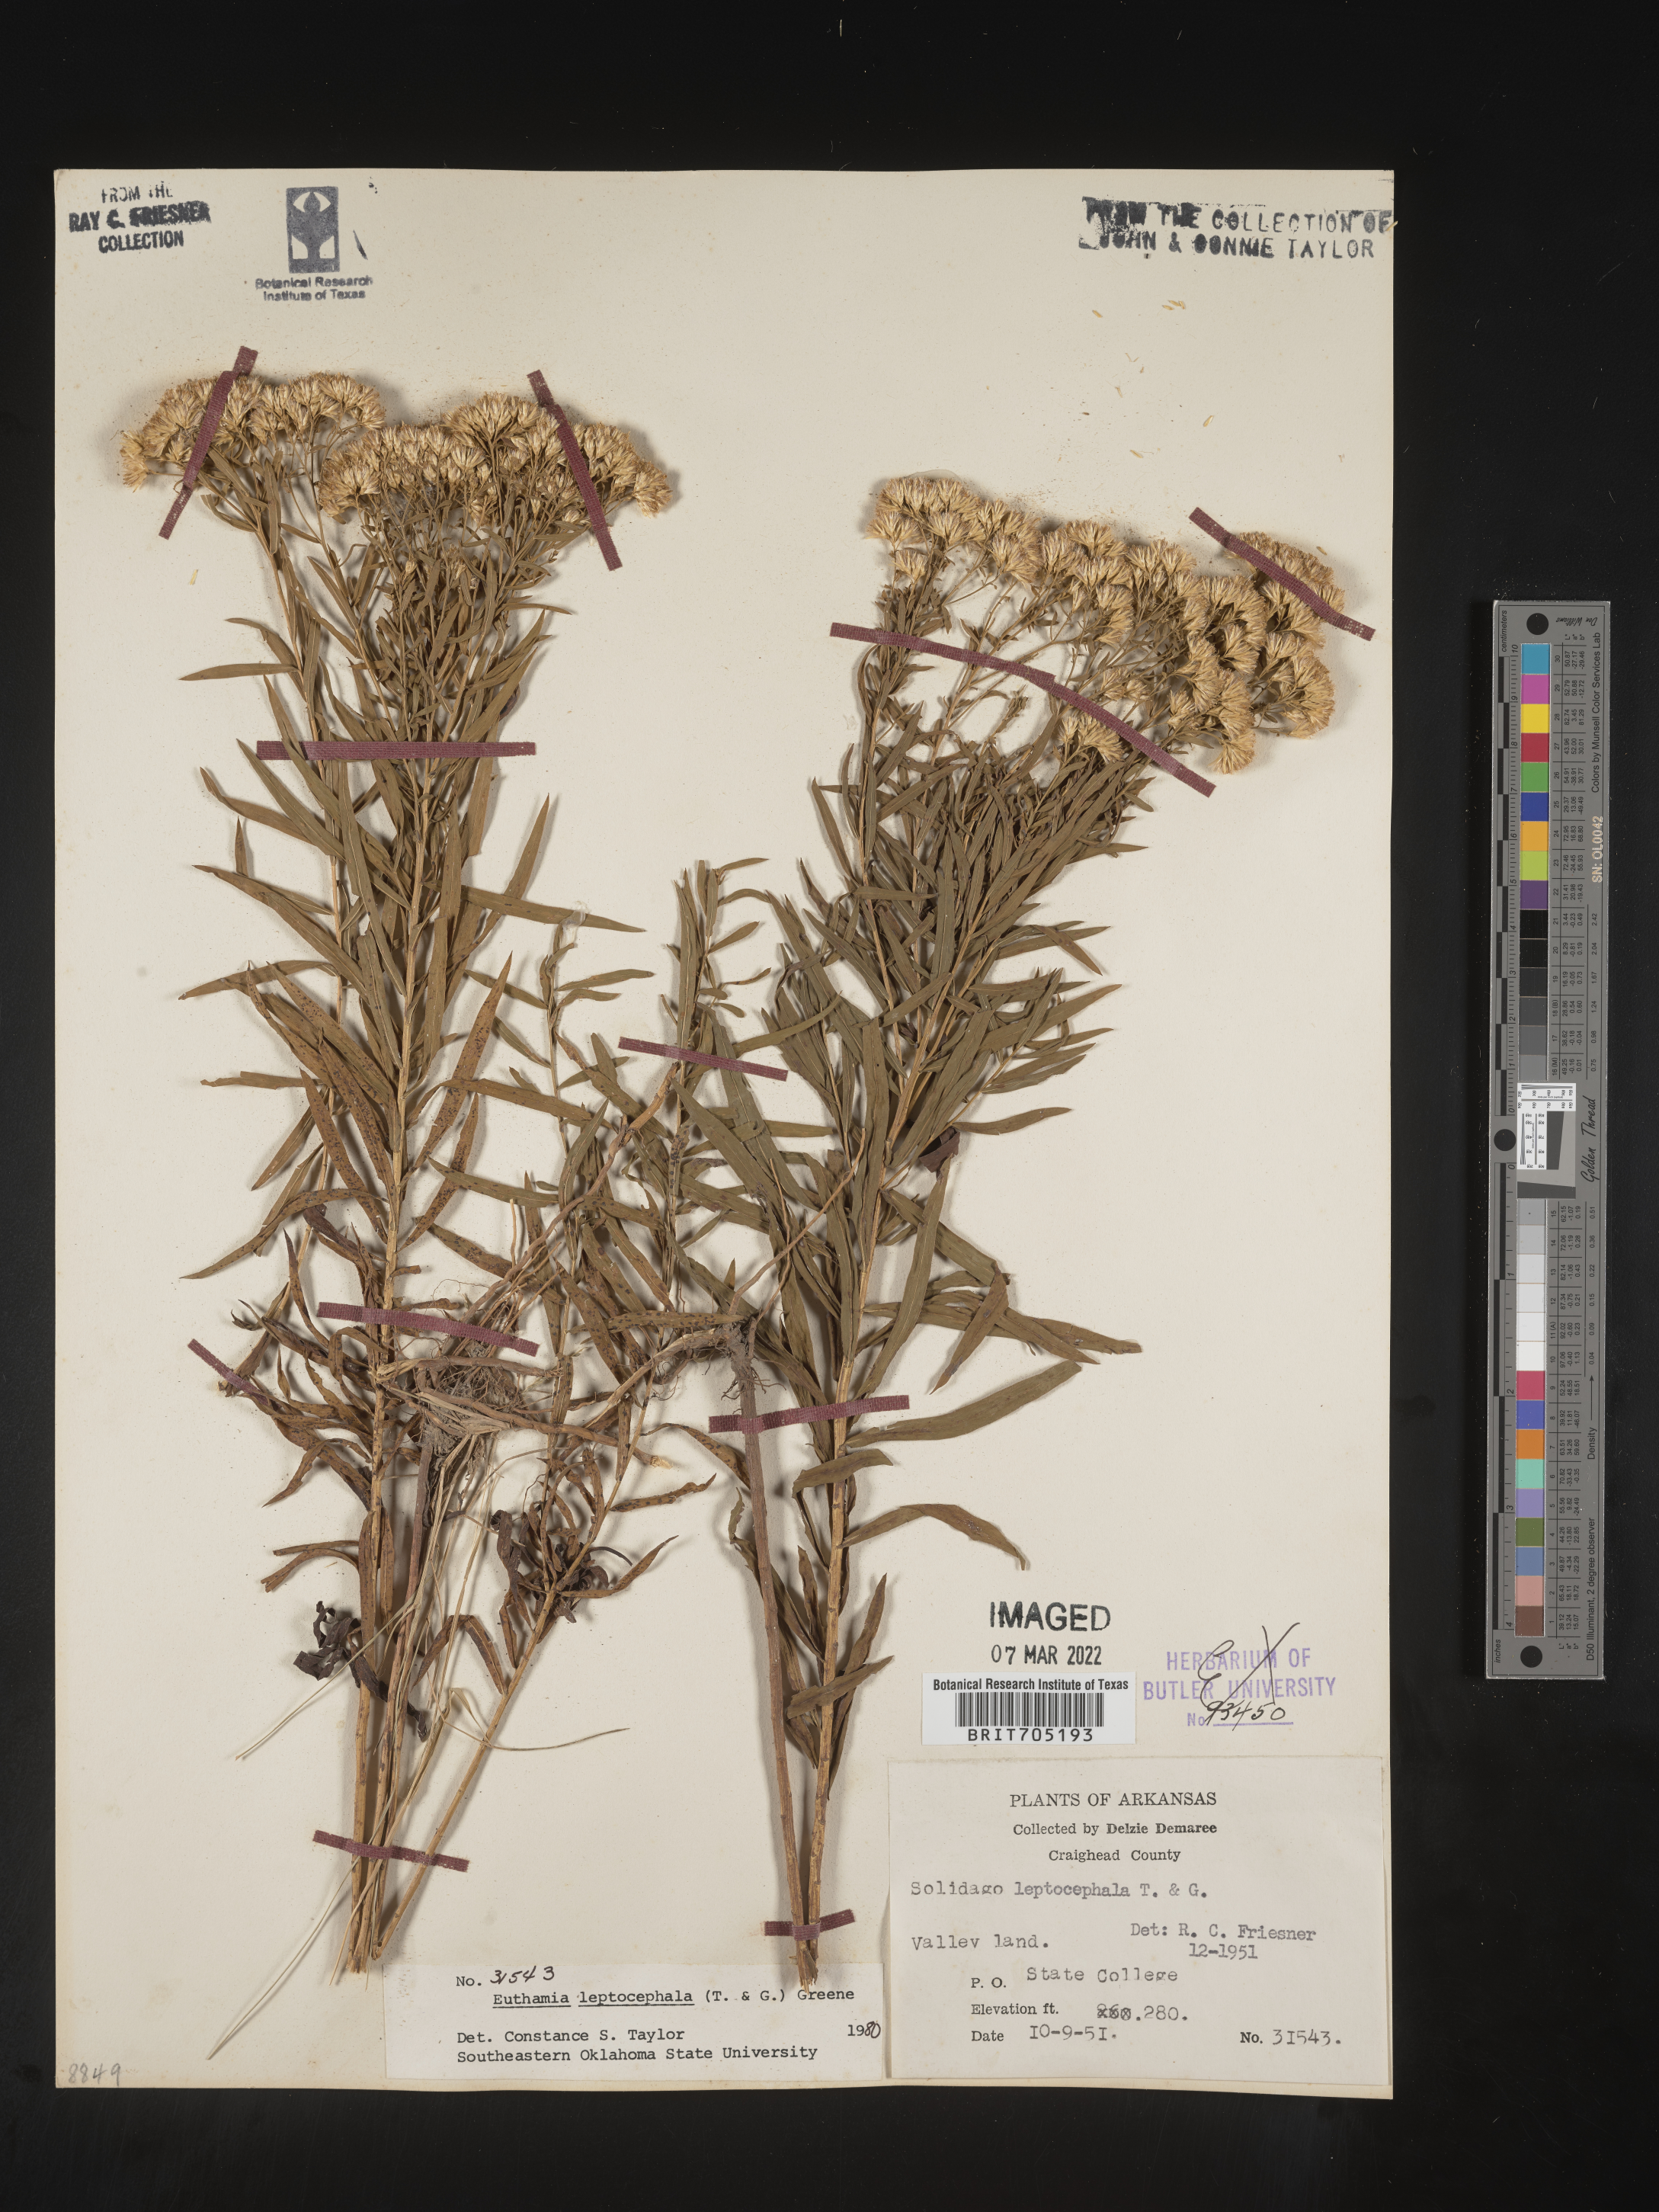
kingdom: Plantae
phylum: Tracheophyta
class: Magnoliopsida
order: Asterales
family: Asteraceae
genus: Euthamia
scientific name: Euthamia leptocephala
